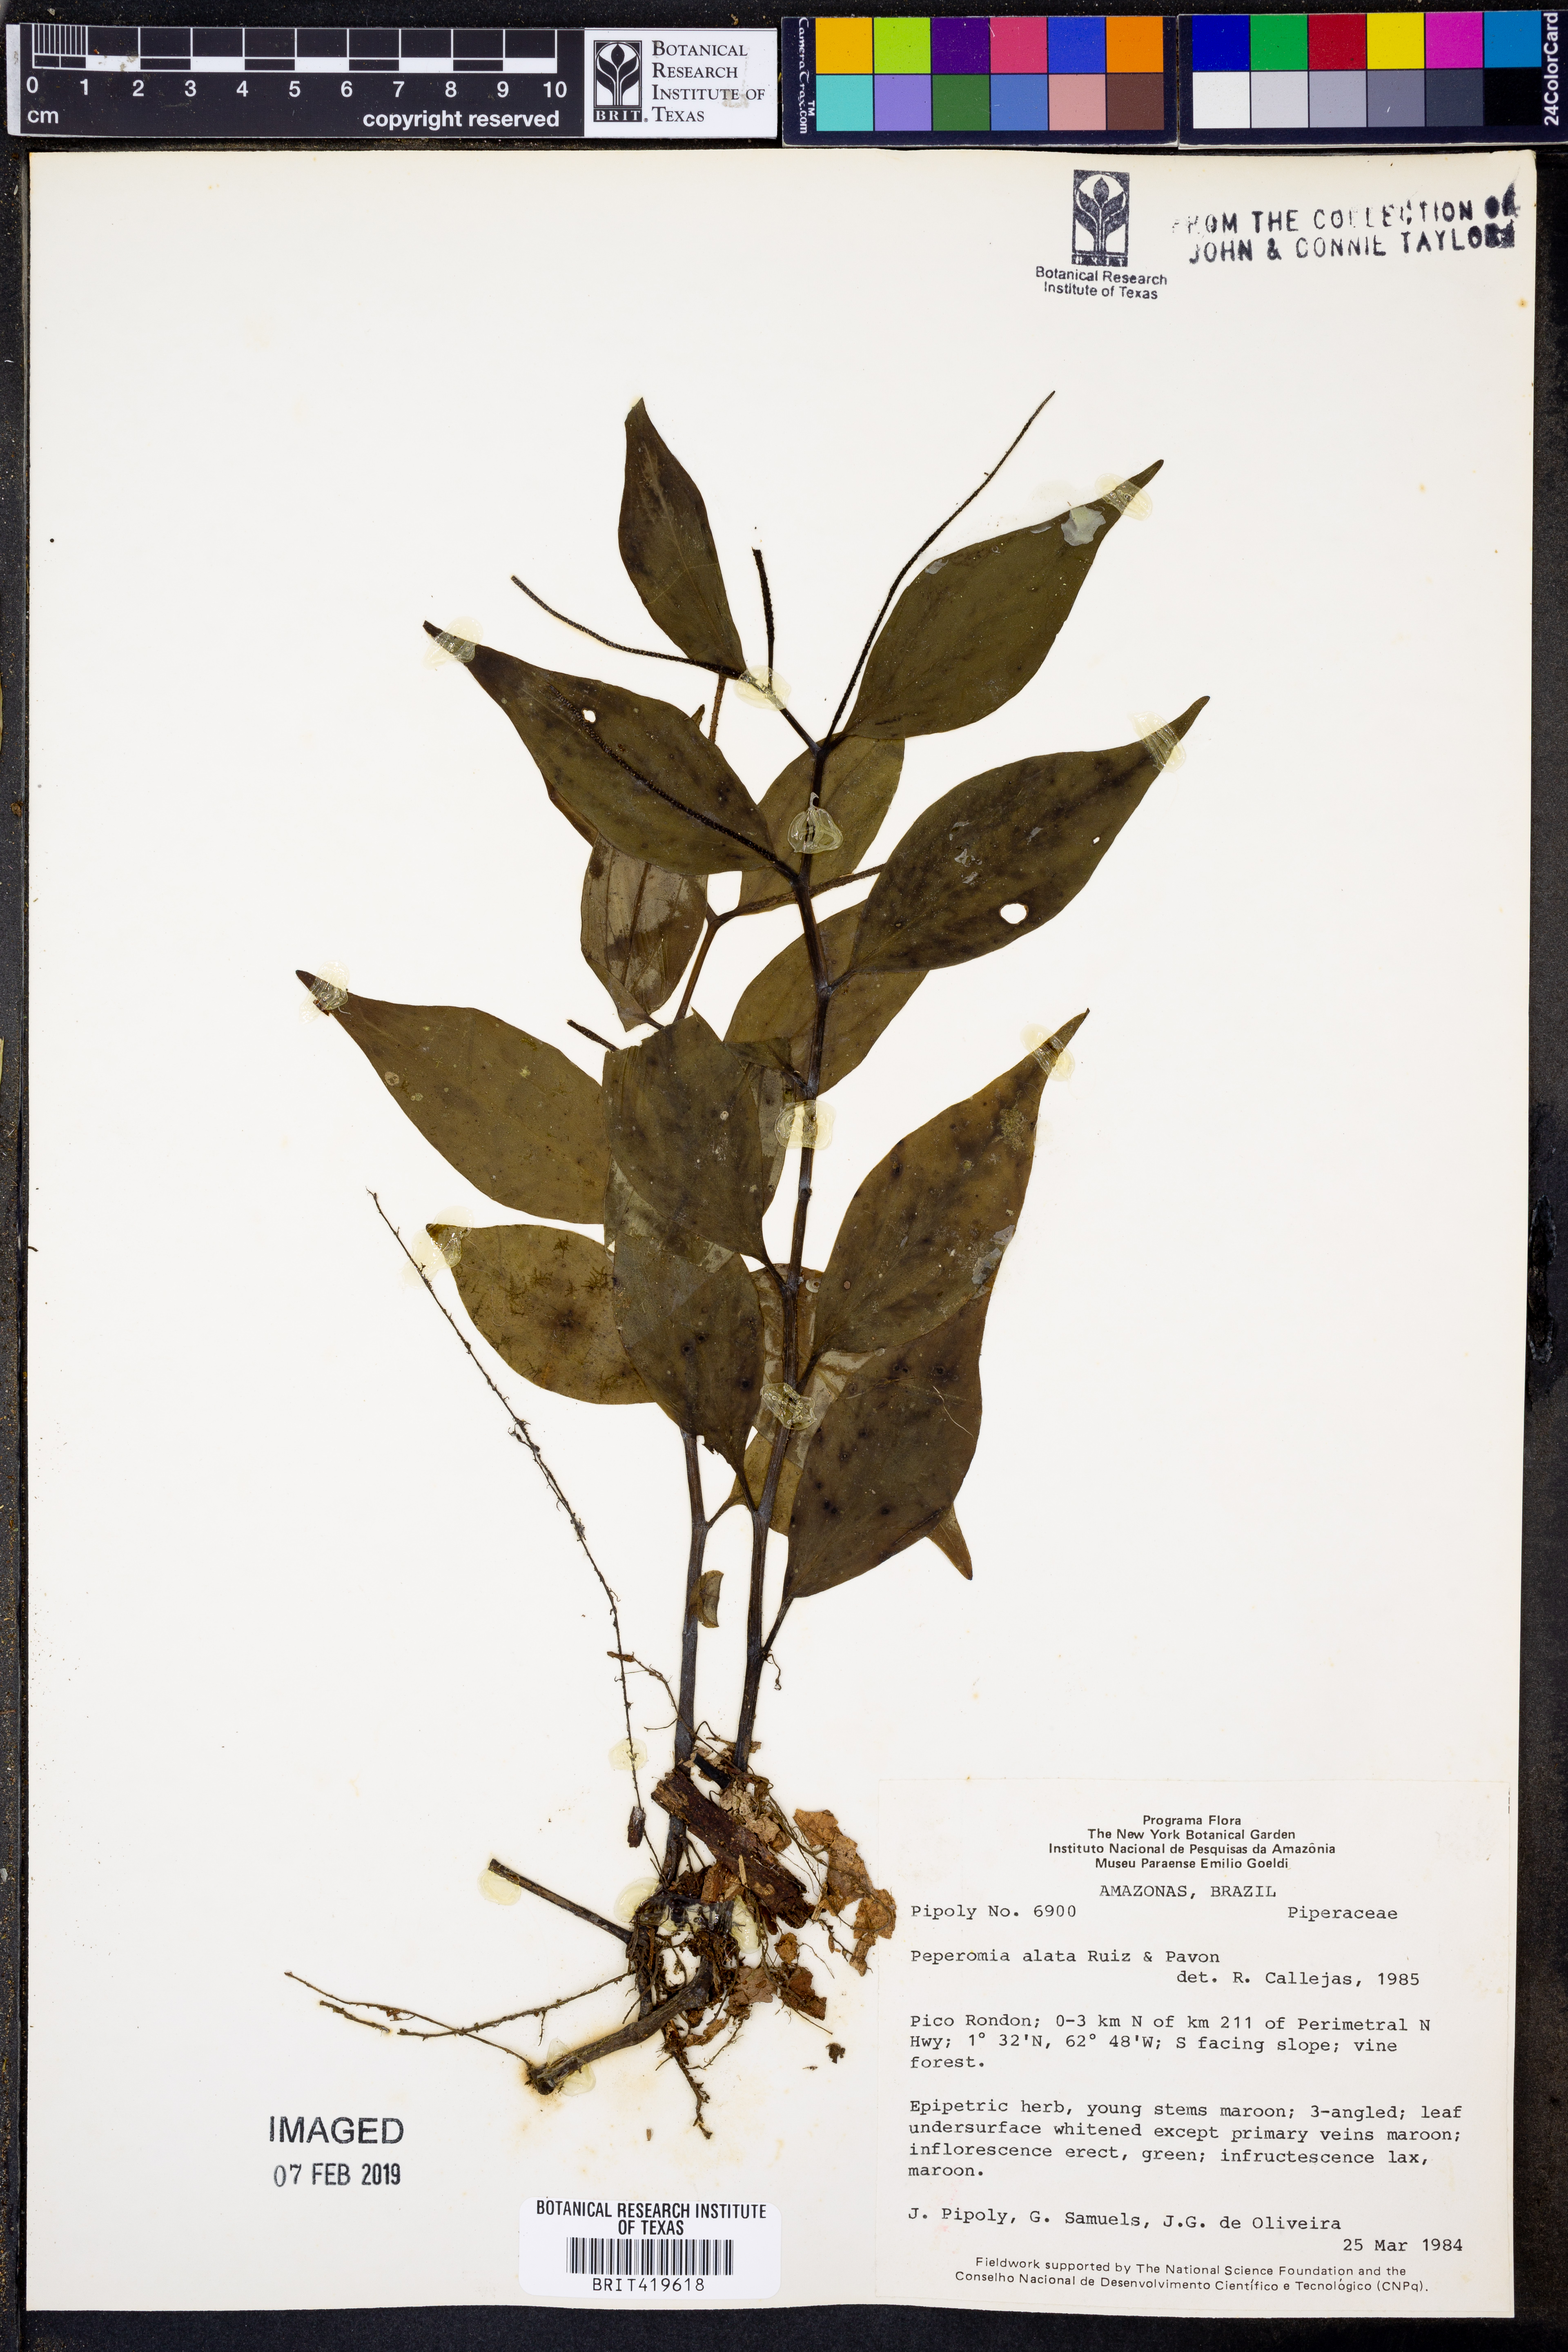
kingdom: Plantae
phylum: Tracheophyta
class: Magnoliopsida
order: Piperales
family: Piperaceae
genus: Peperomia
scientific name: Peperomia alata
